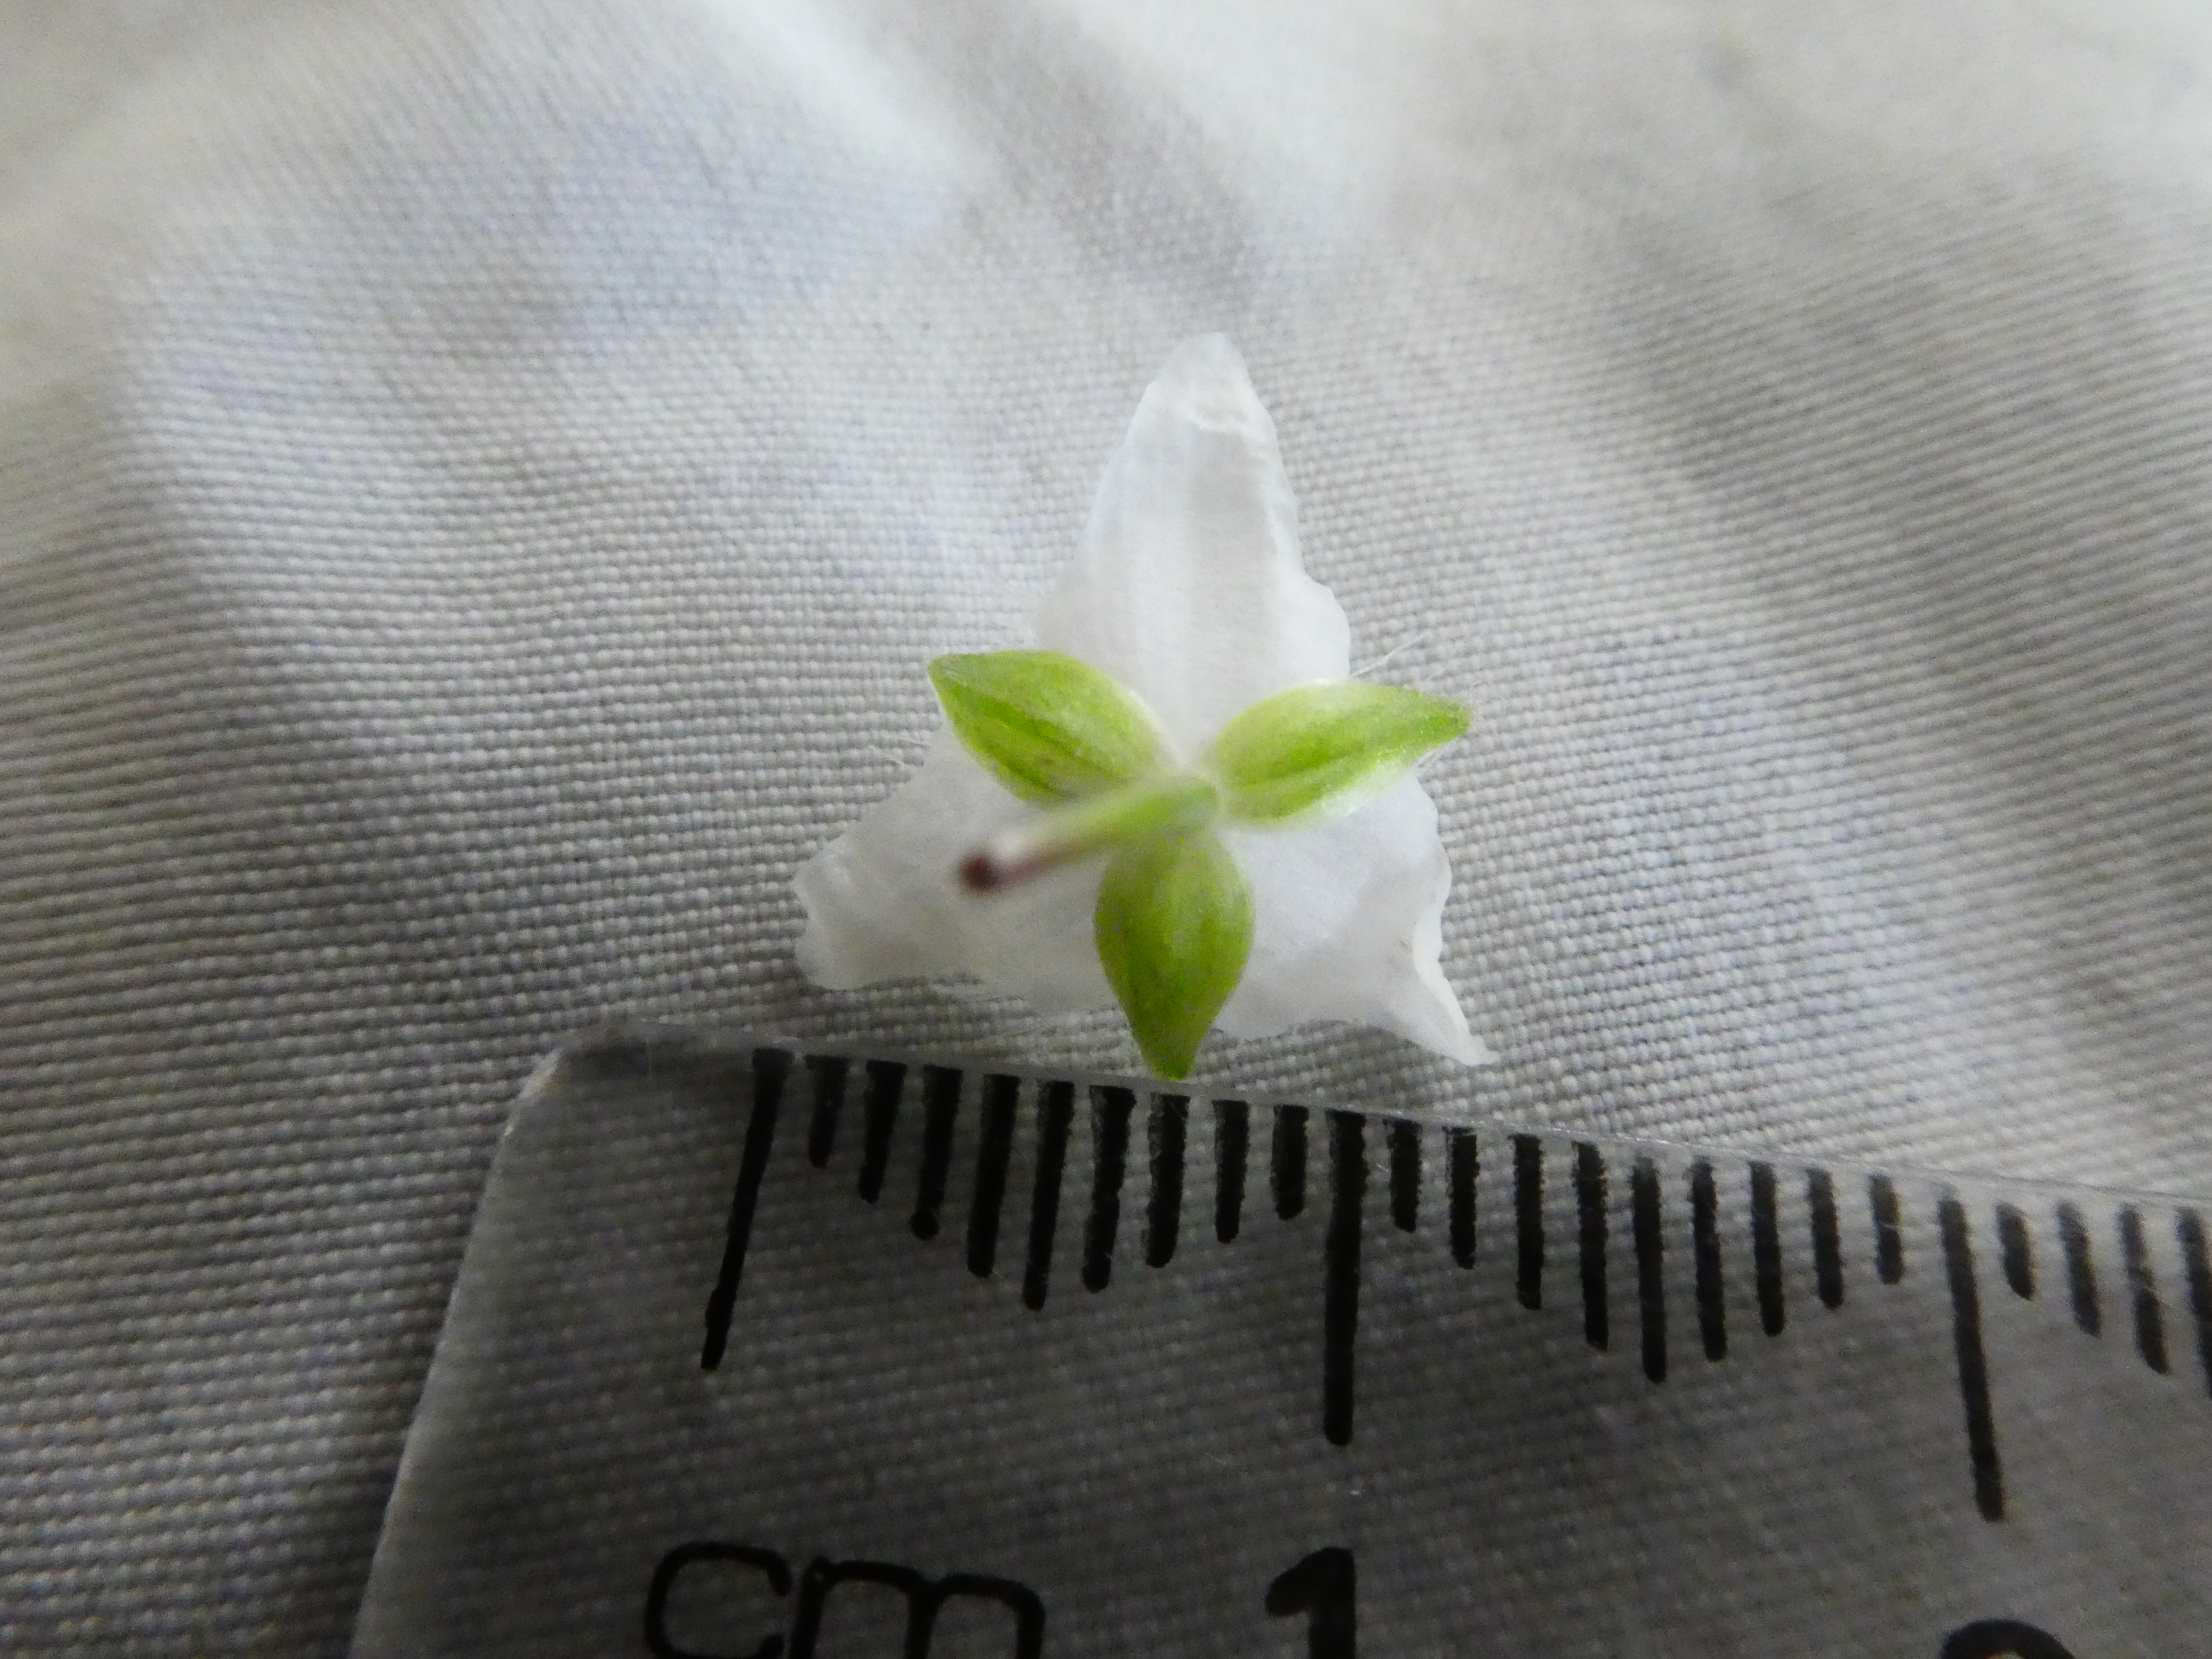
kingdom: Plantae
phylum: Tracheophyta
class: Liliopsida
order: Commelinales
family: Commelinaceae
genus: Tradescantia
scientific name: Tradescantia fluminensis
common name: Wandering-jew
